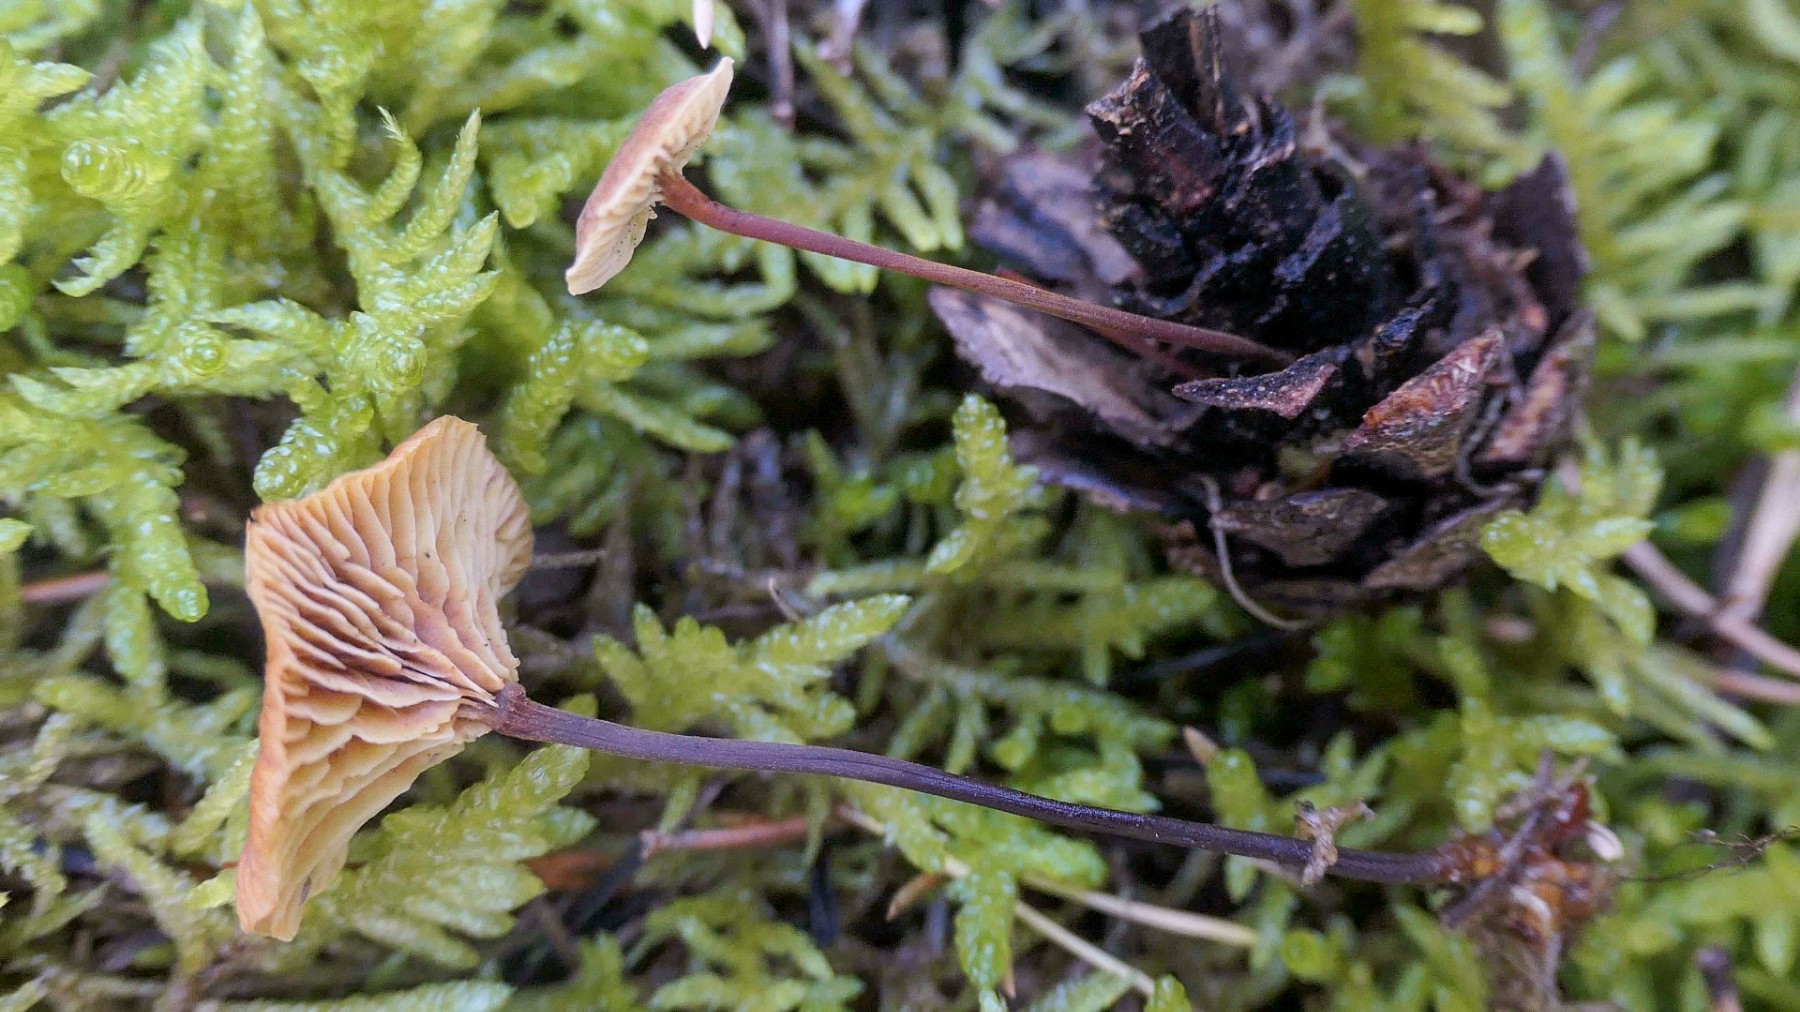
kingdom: Fungi
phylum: Basidiomycota
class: Agaricomycetes
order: Agaricales
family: Mycenaceae
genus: Xeromphalina
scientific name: Xeromphalina cauticinalis
